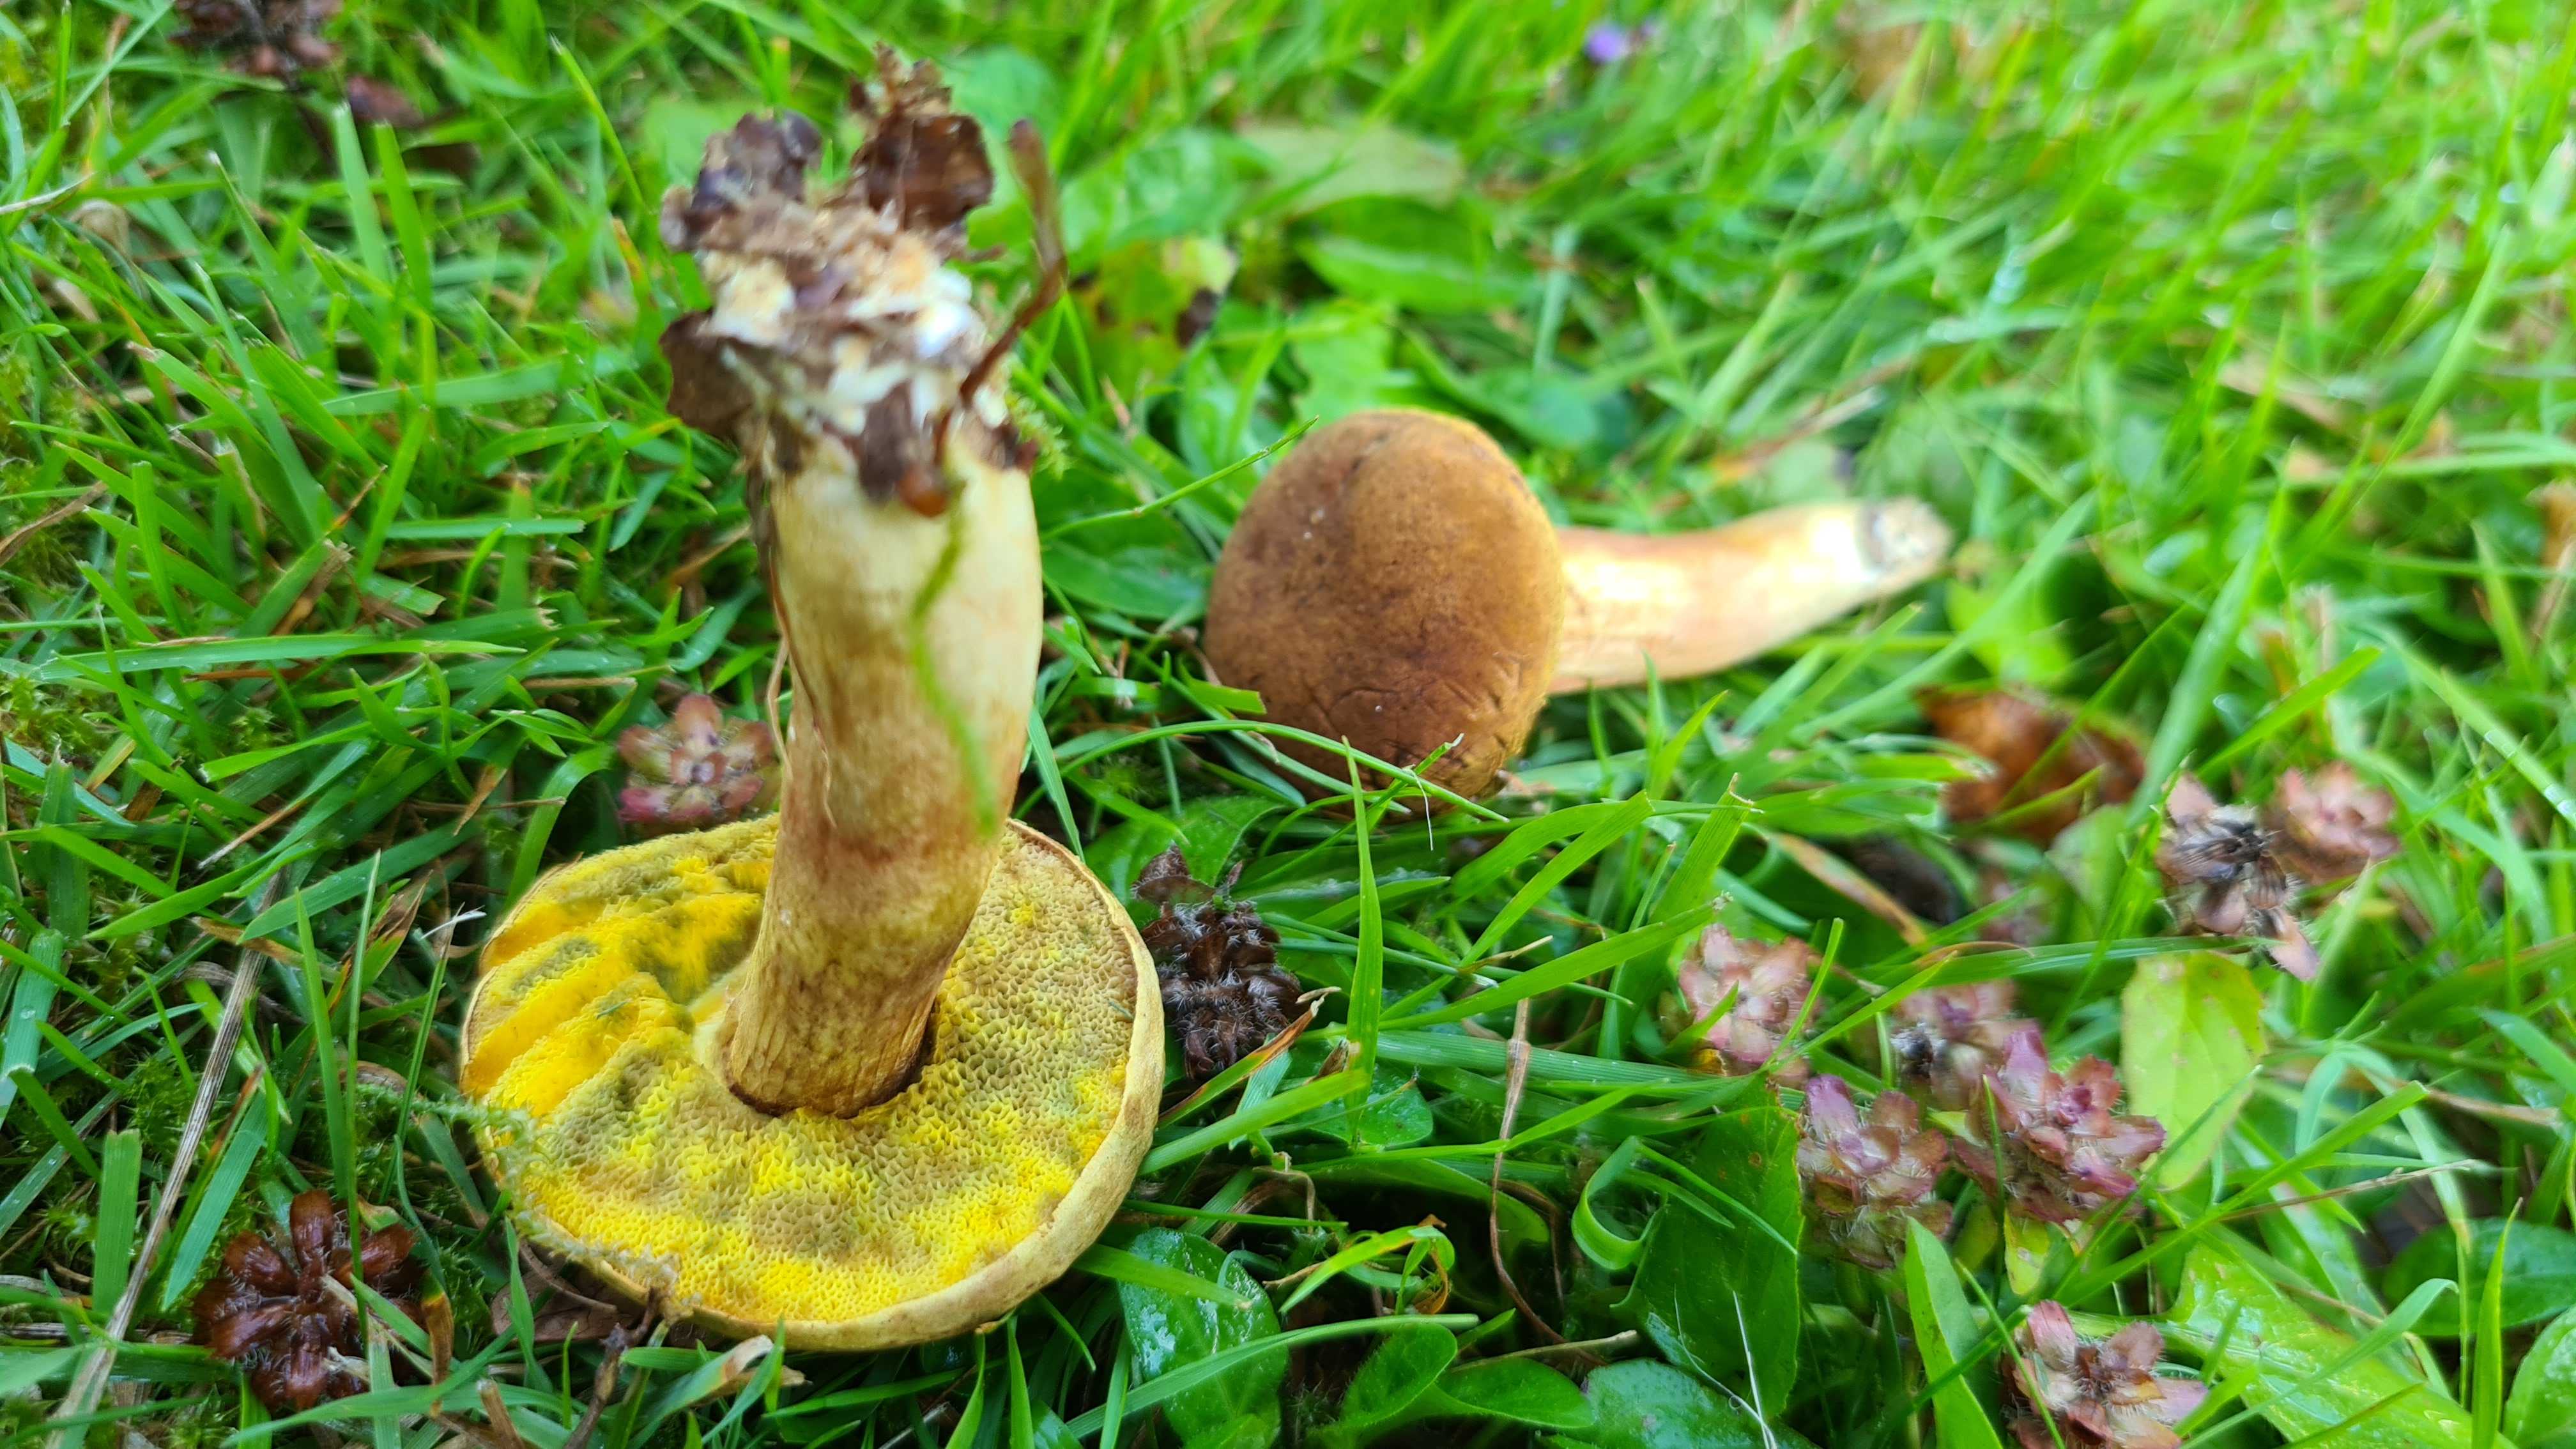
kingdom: Fungi
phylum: Basidiomycota
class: Agaricomycetes
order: Boletales
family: Boletaceae
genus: Xerocomus
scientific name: Xerocomus ferrugineus
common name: vaskeskinds-rørhat
